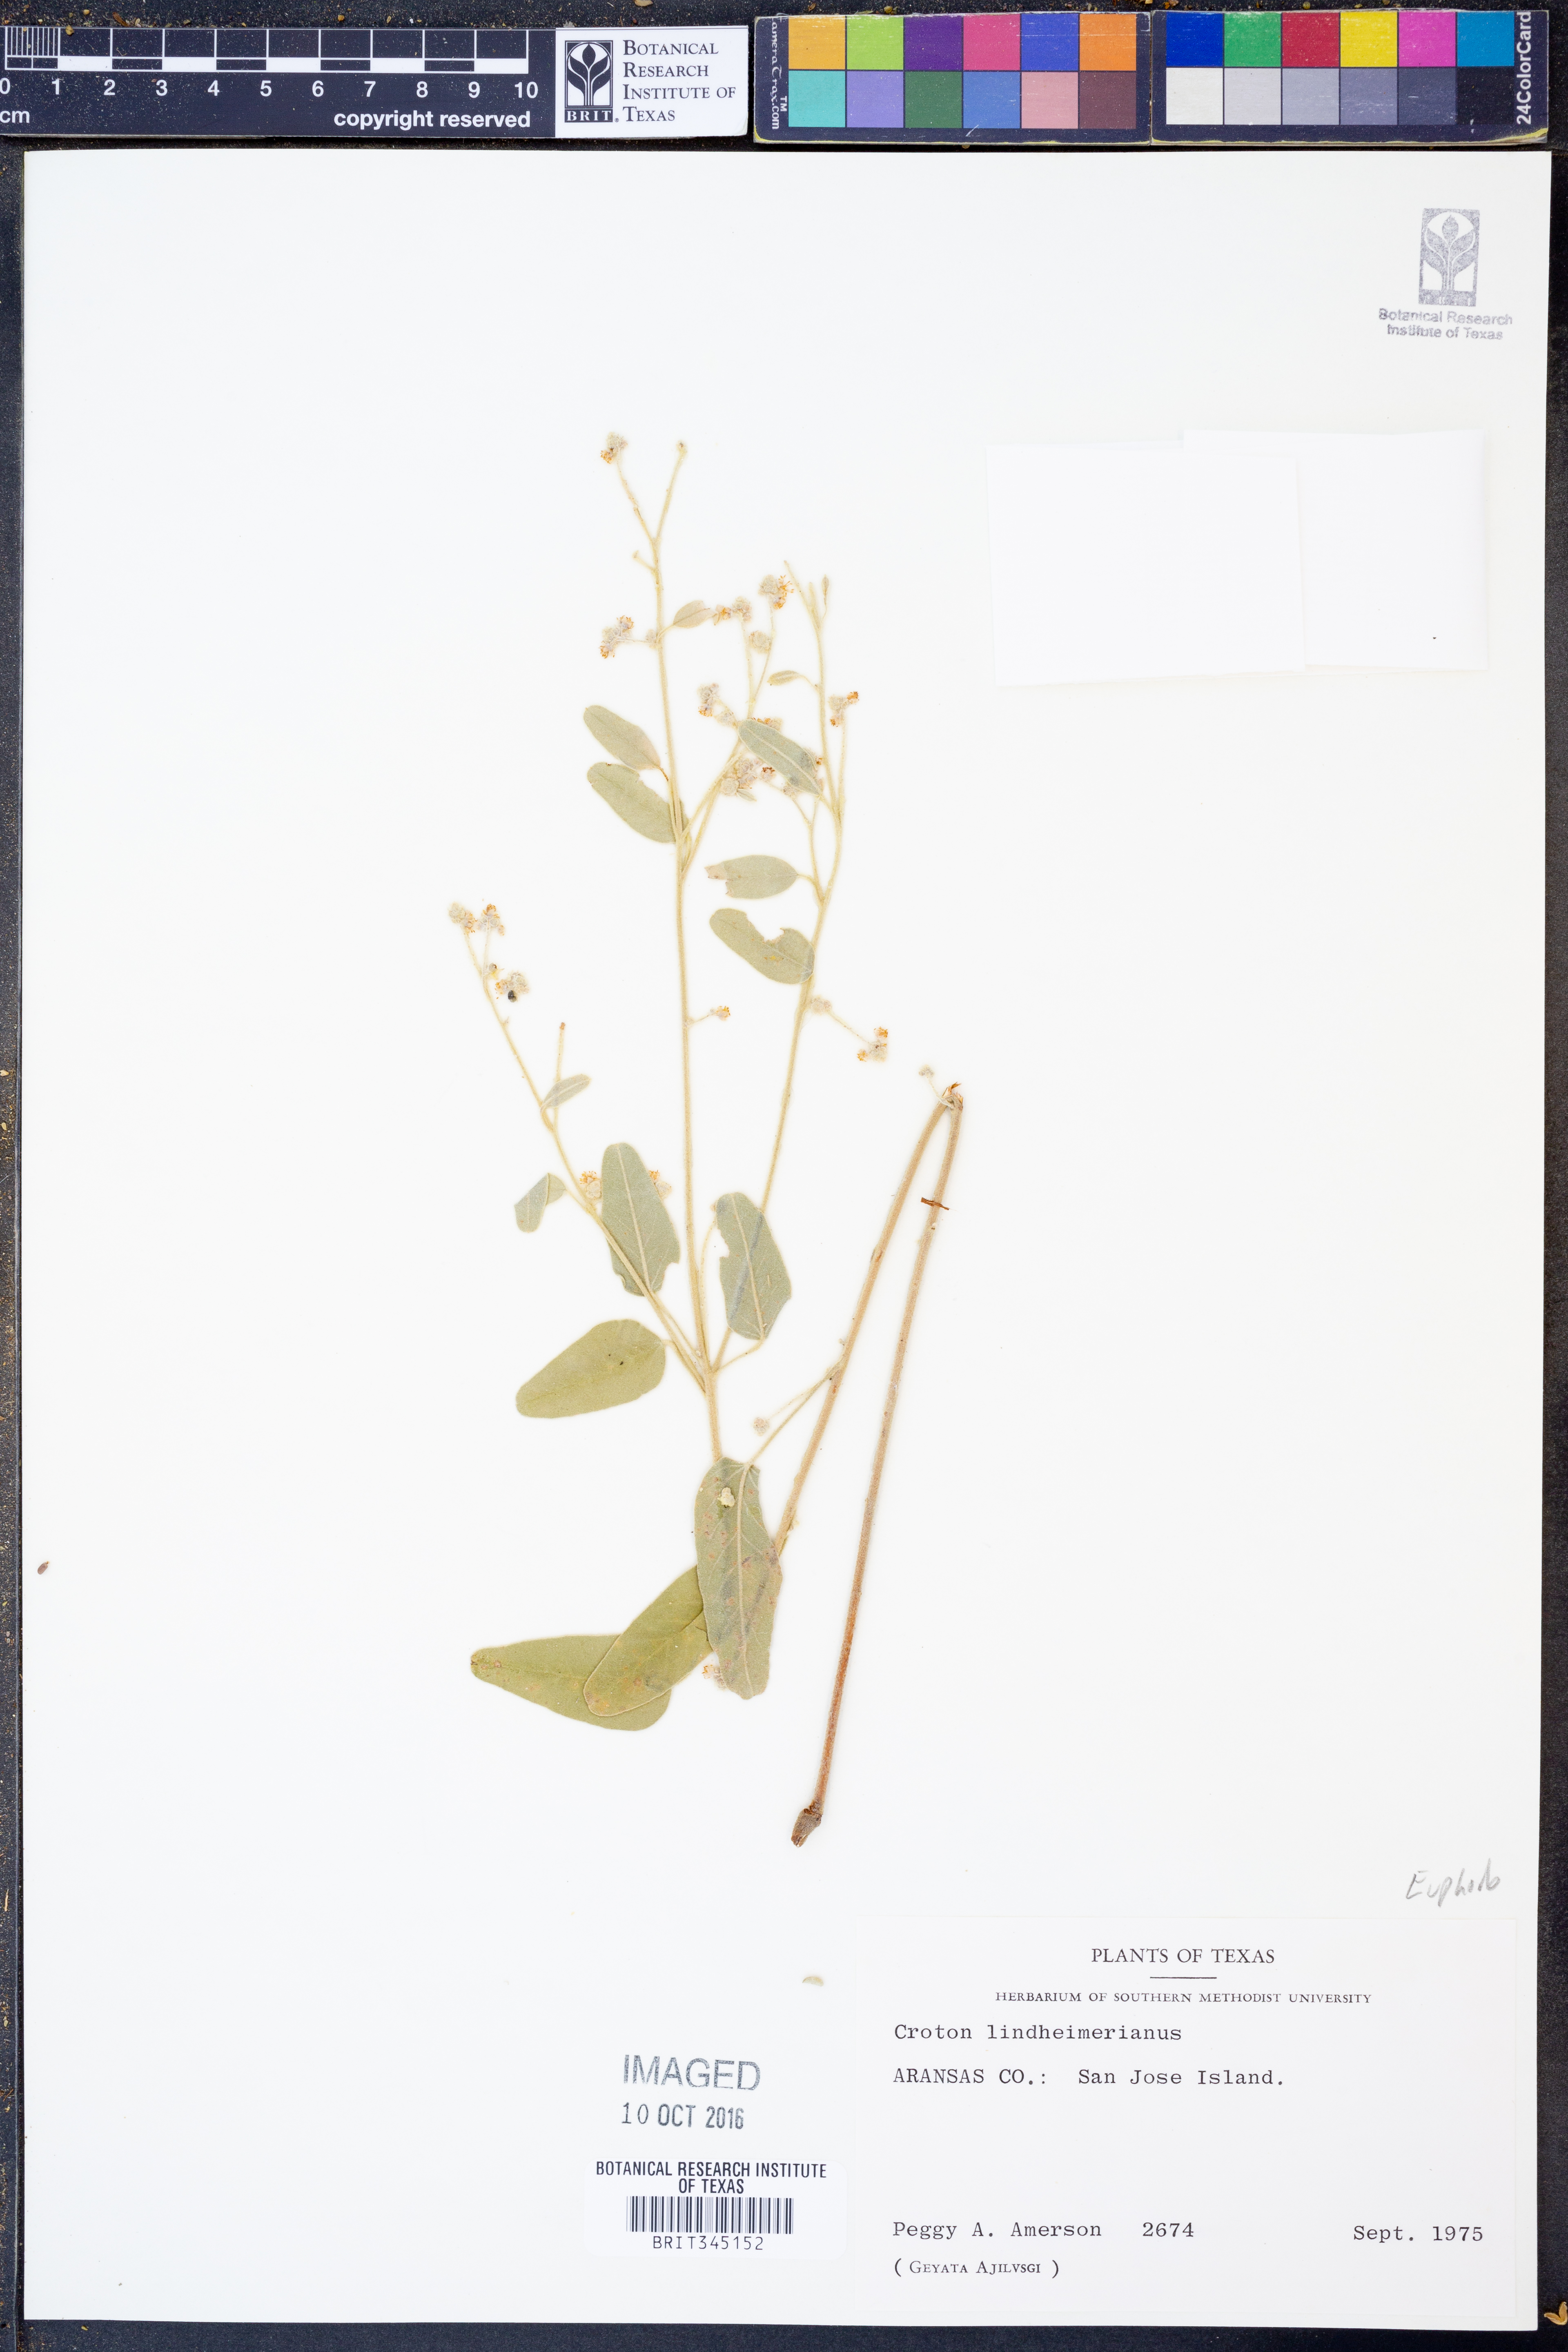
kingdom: Plantae
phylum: Tracheophyta
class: Magnoliopsida
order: Malpighiales
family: Euphorbiaceae
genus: Croton
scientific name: Croton lindheimerianus
